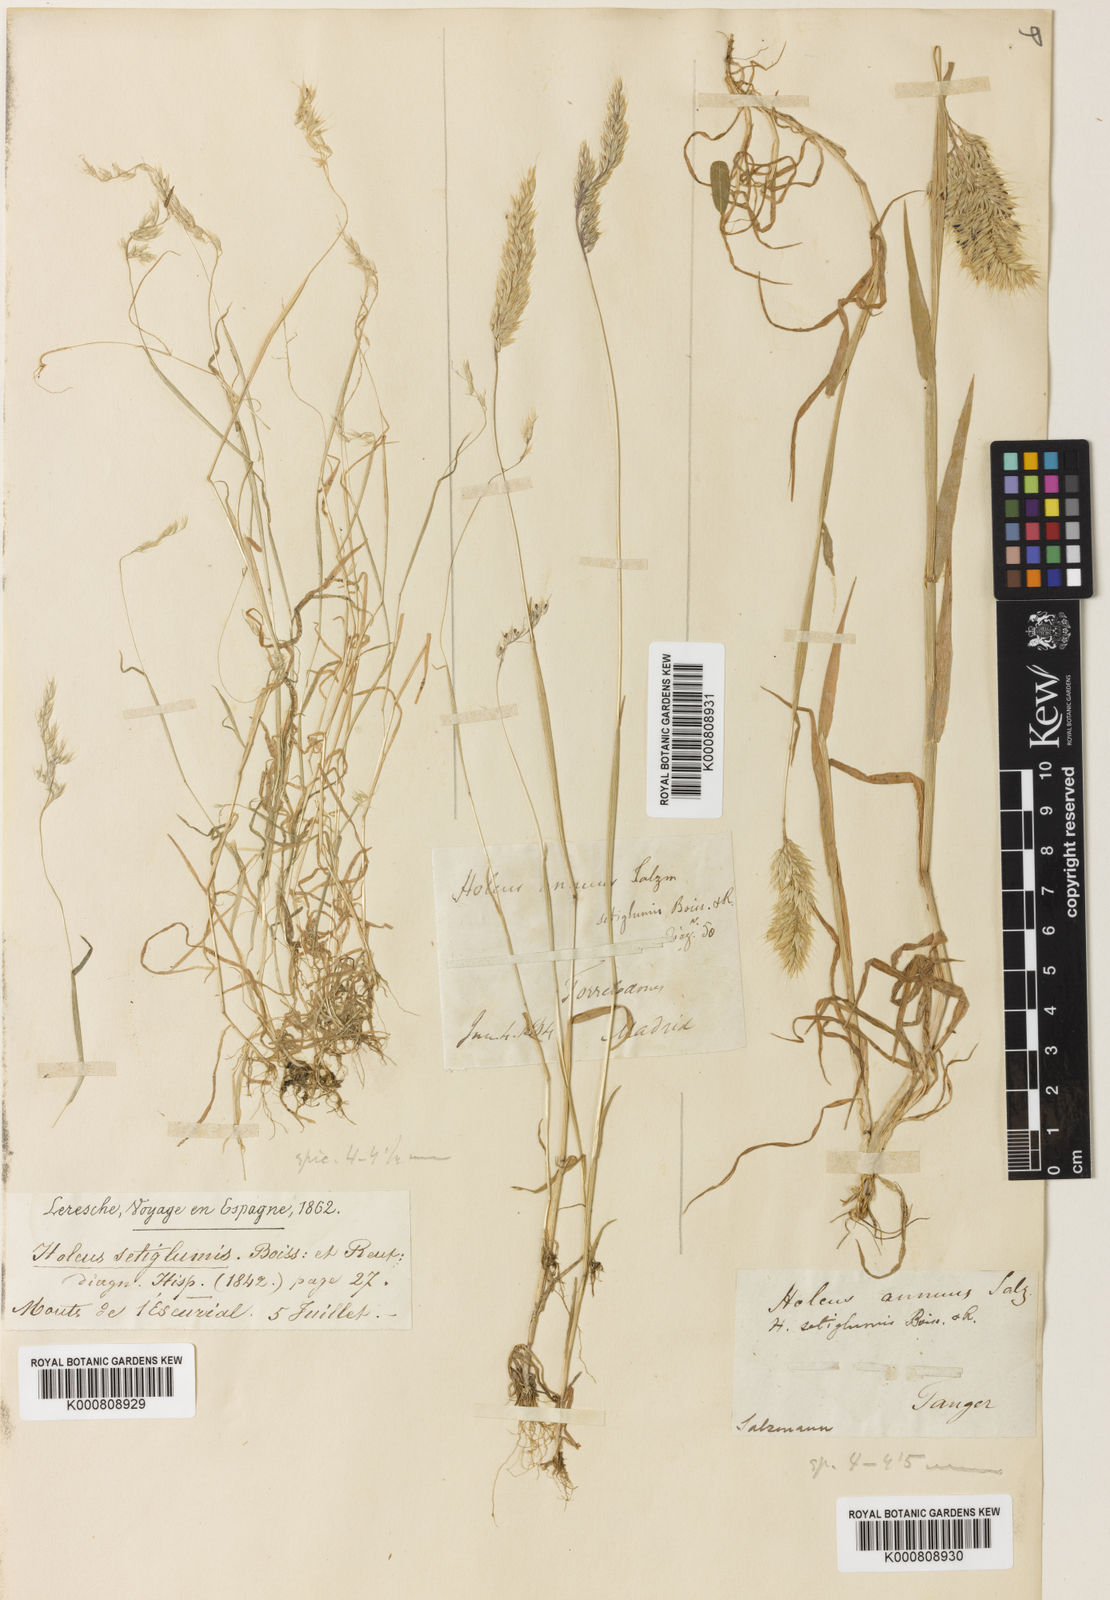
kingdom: Plantae
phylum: Tracheophyta
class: Liliopsida
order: Poales
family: Poaceae
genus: Holcus
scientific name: Holcus annuus
